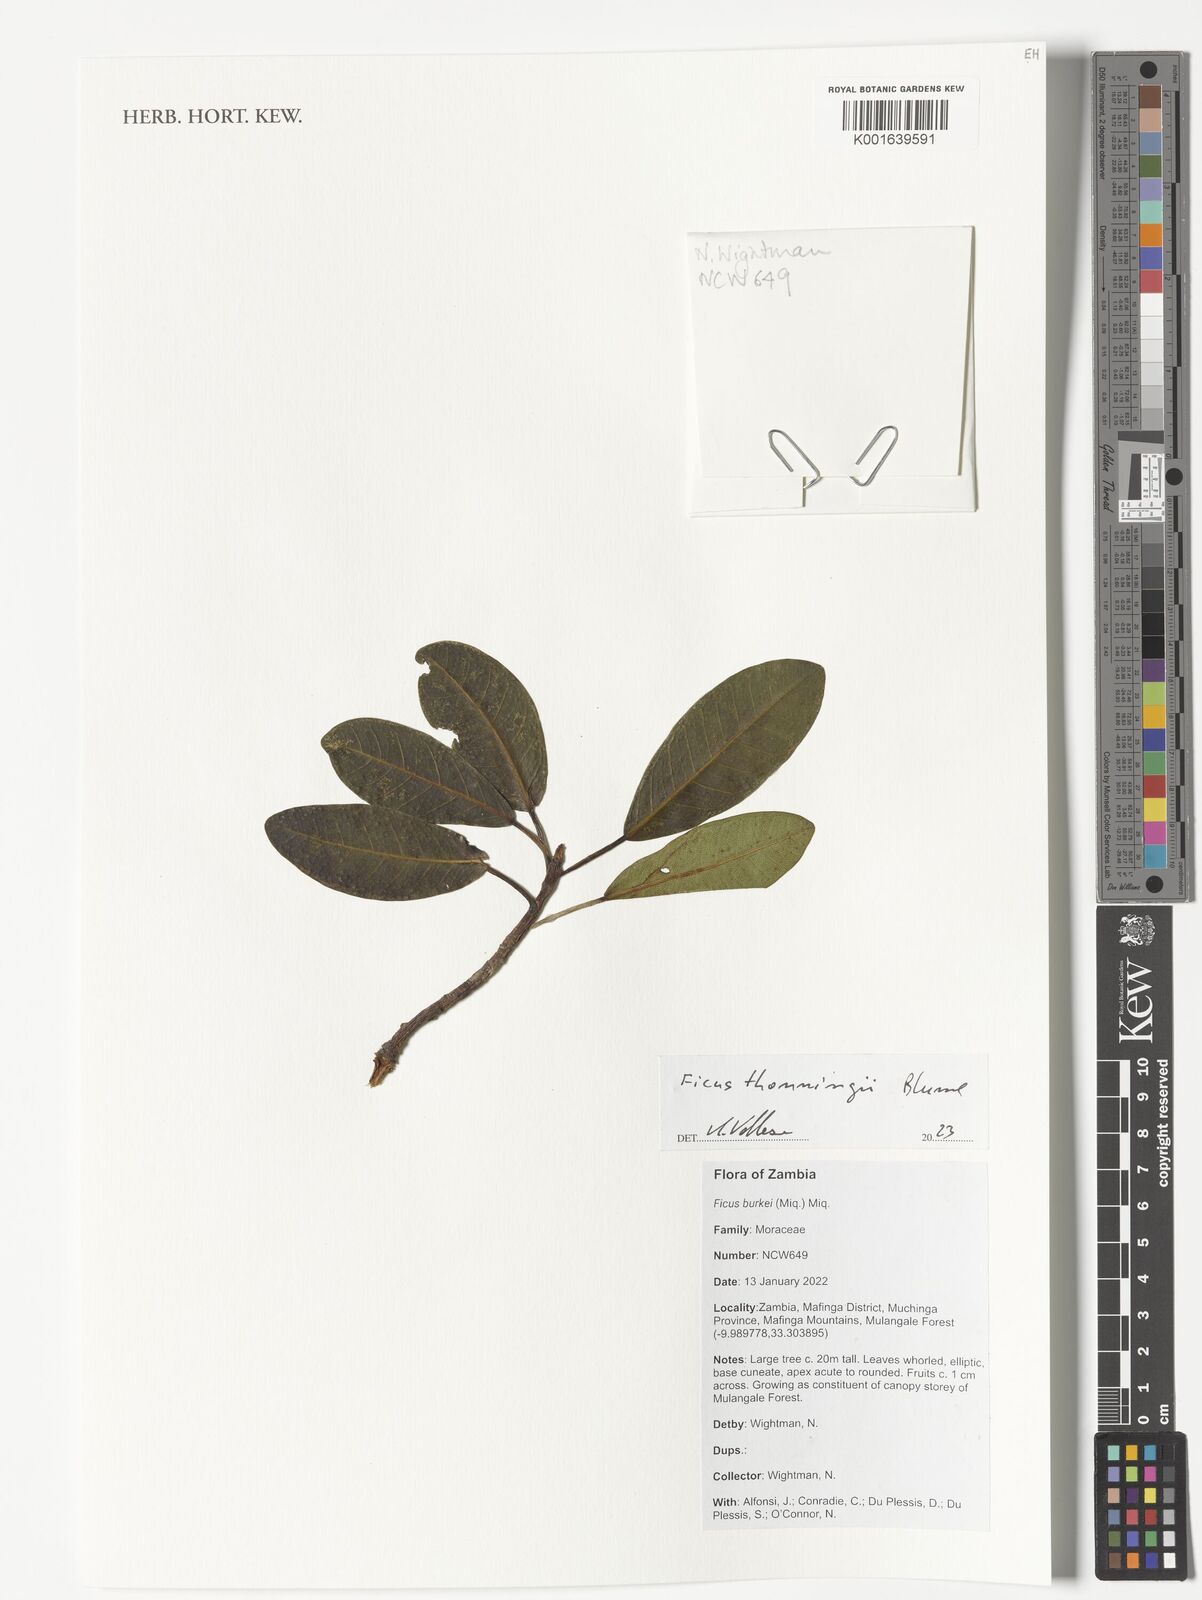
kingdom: Plantae
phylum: Tracheophyta
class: Magnoliopsida
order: Rosales
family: Moraceae
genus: Ficus
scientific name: Ficus thonningii
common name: Fig
